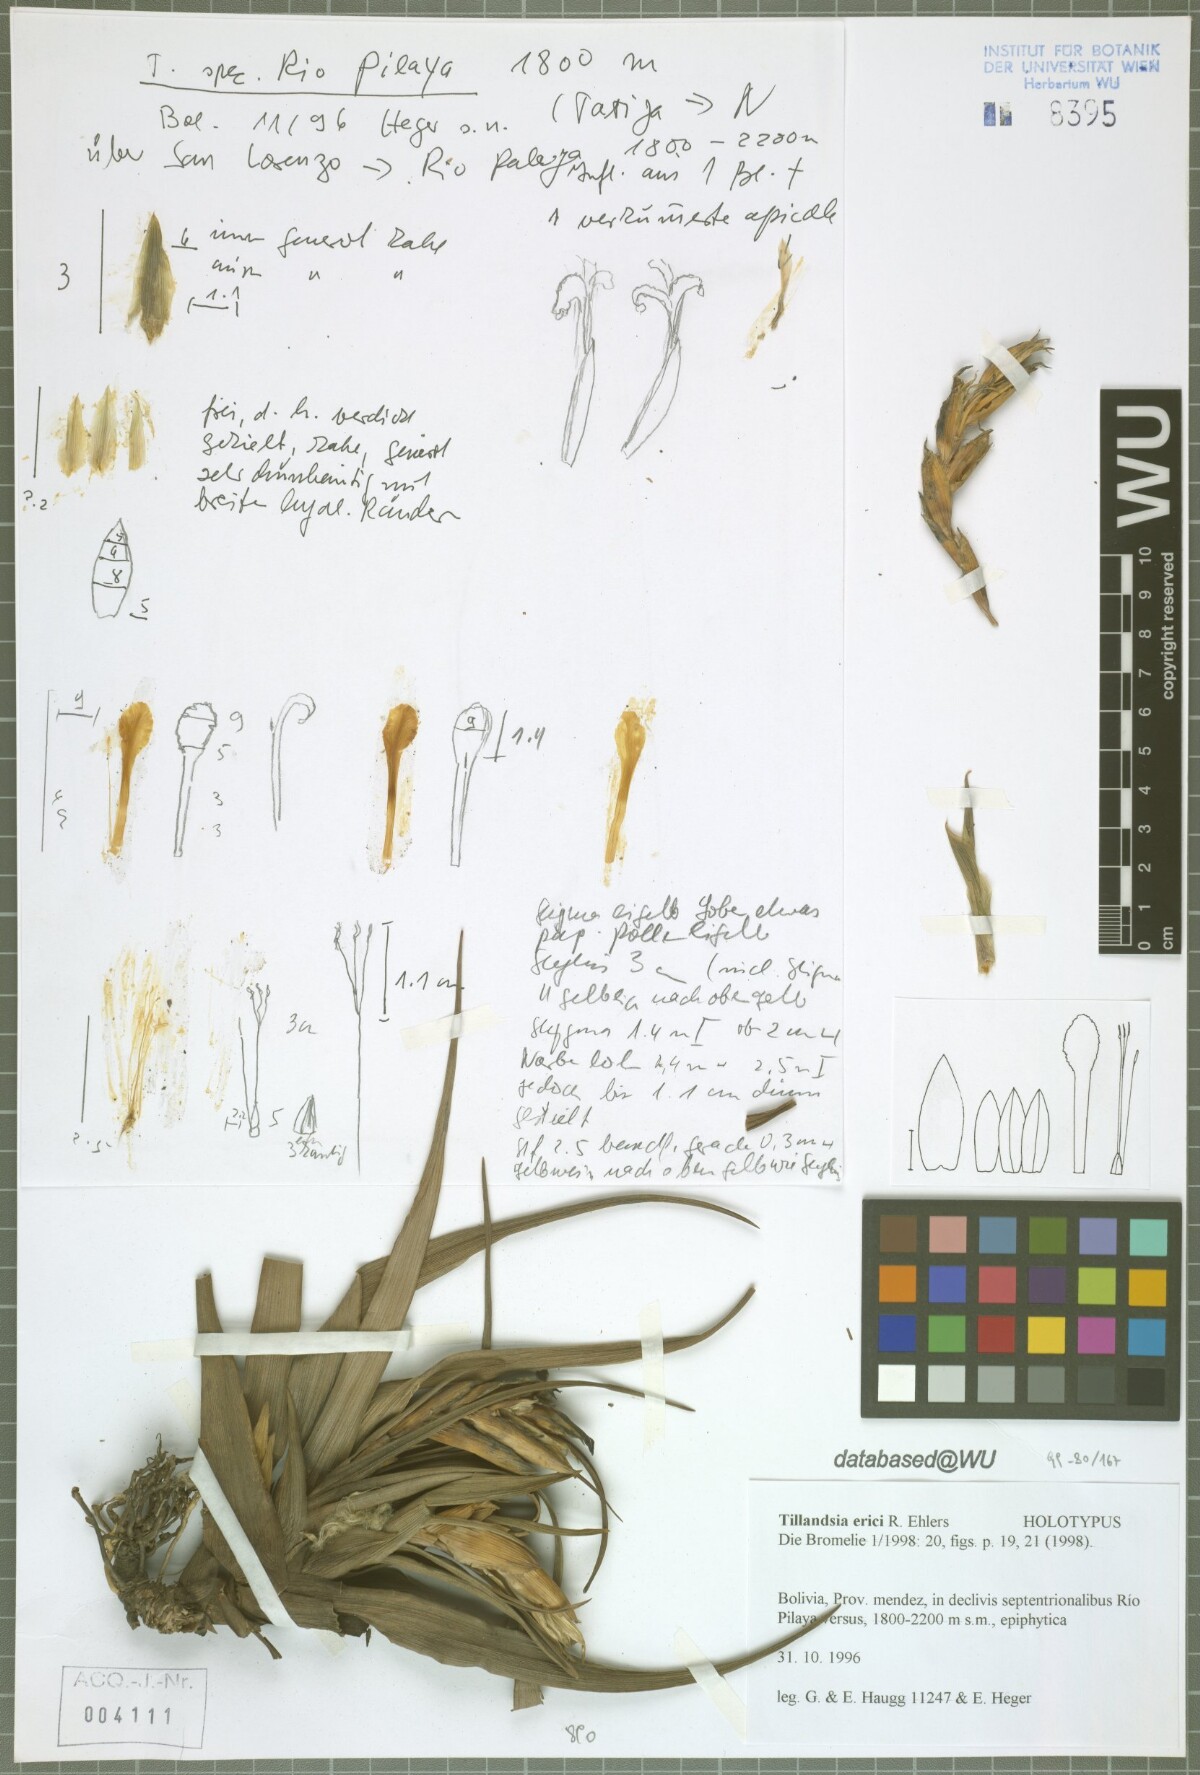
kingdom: Plantae
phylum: Tracheophyta
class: Liliopsida
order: Poales
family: Bromeliaceae
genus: Tillandsia
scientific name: Tillandsia erici
